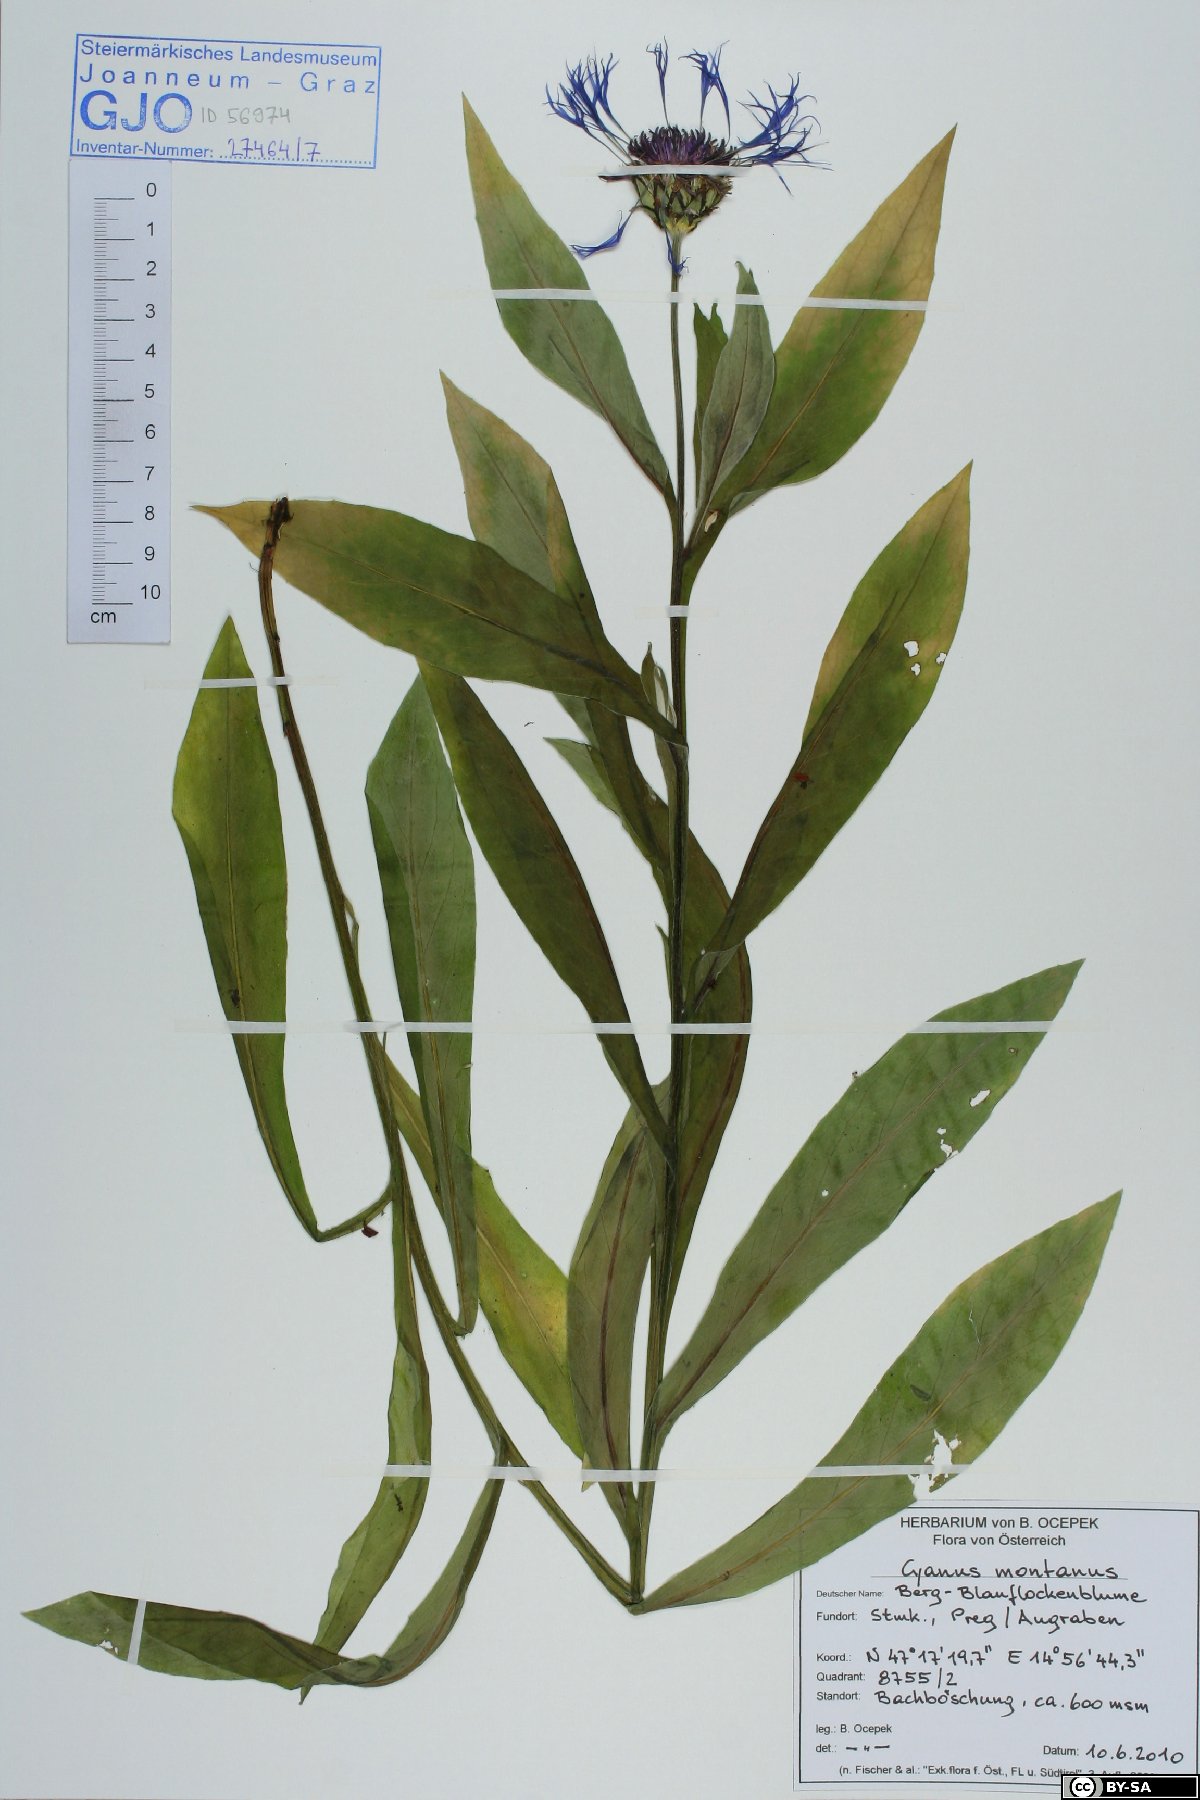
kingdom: Plantae
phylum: Tracheophyta
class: Magnoliopsida
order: Asterales
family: Asteraceae
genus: Centaurea
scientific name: Centaurea montana
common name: Perennial cornflower
